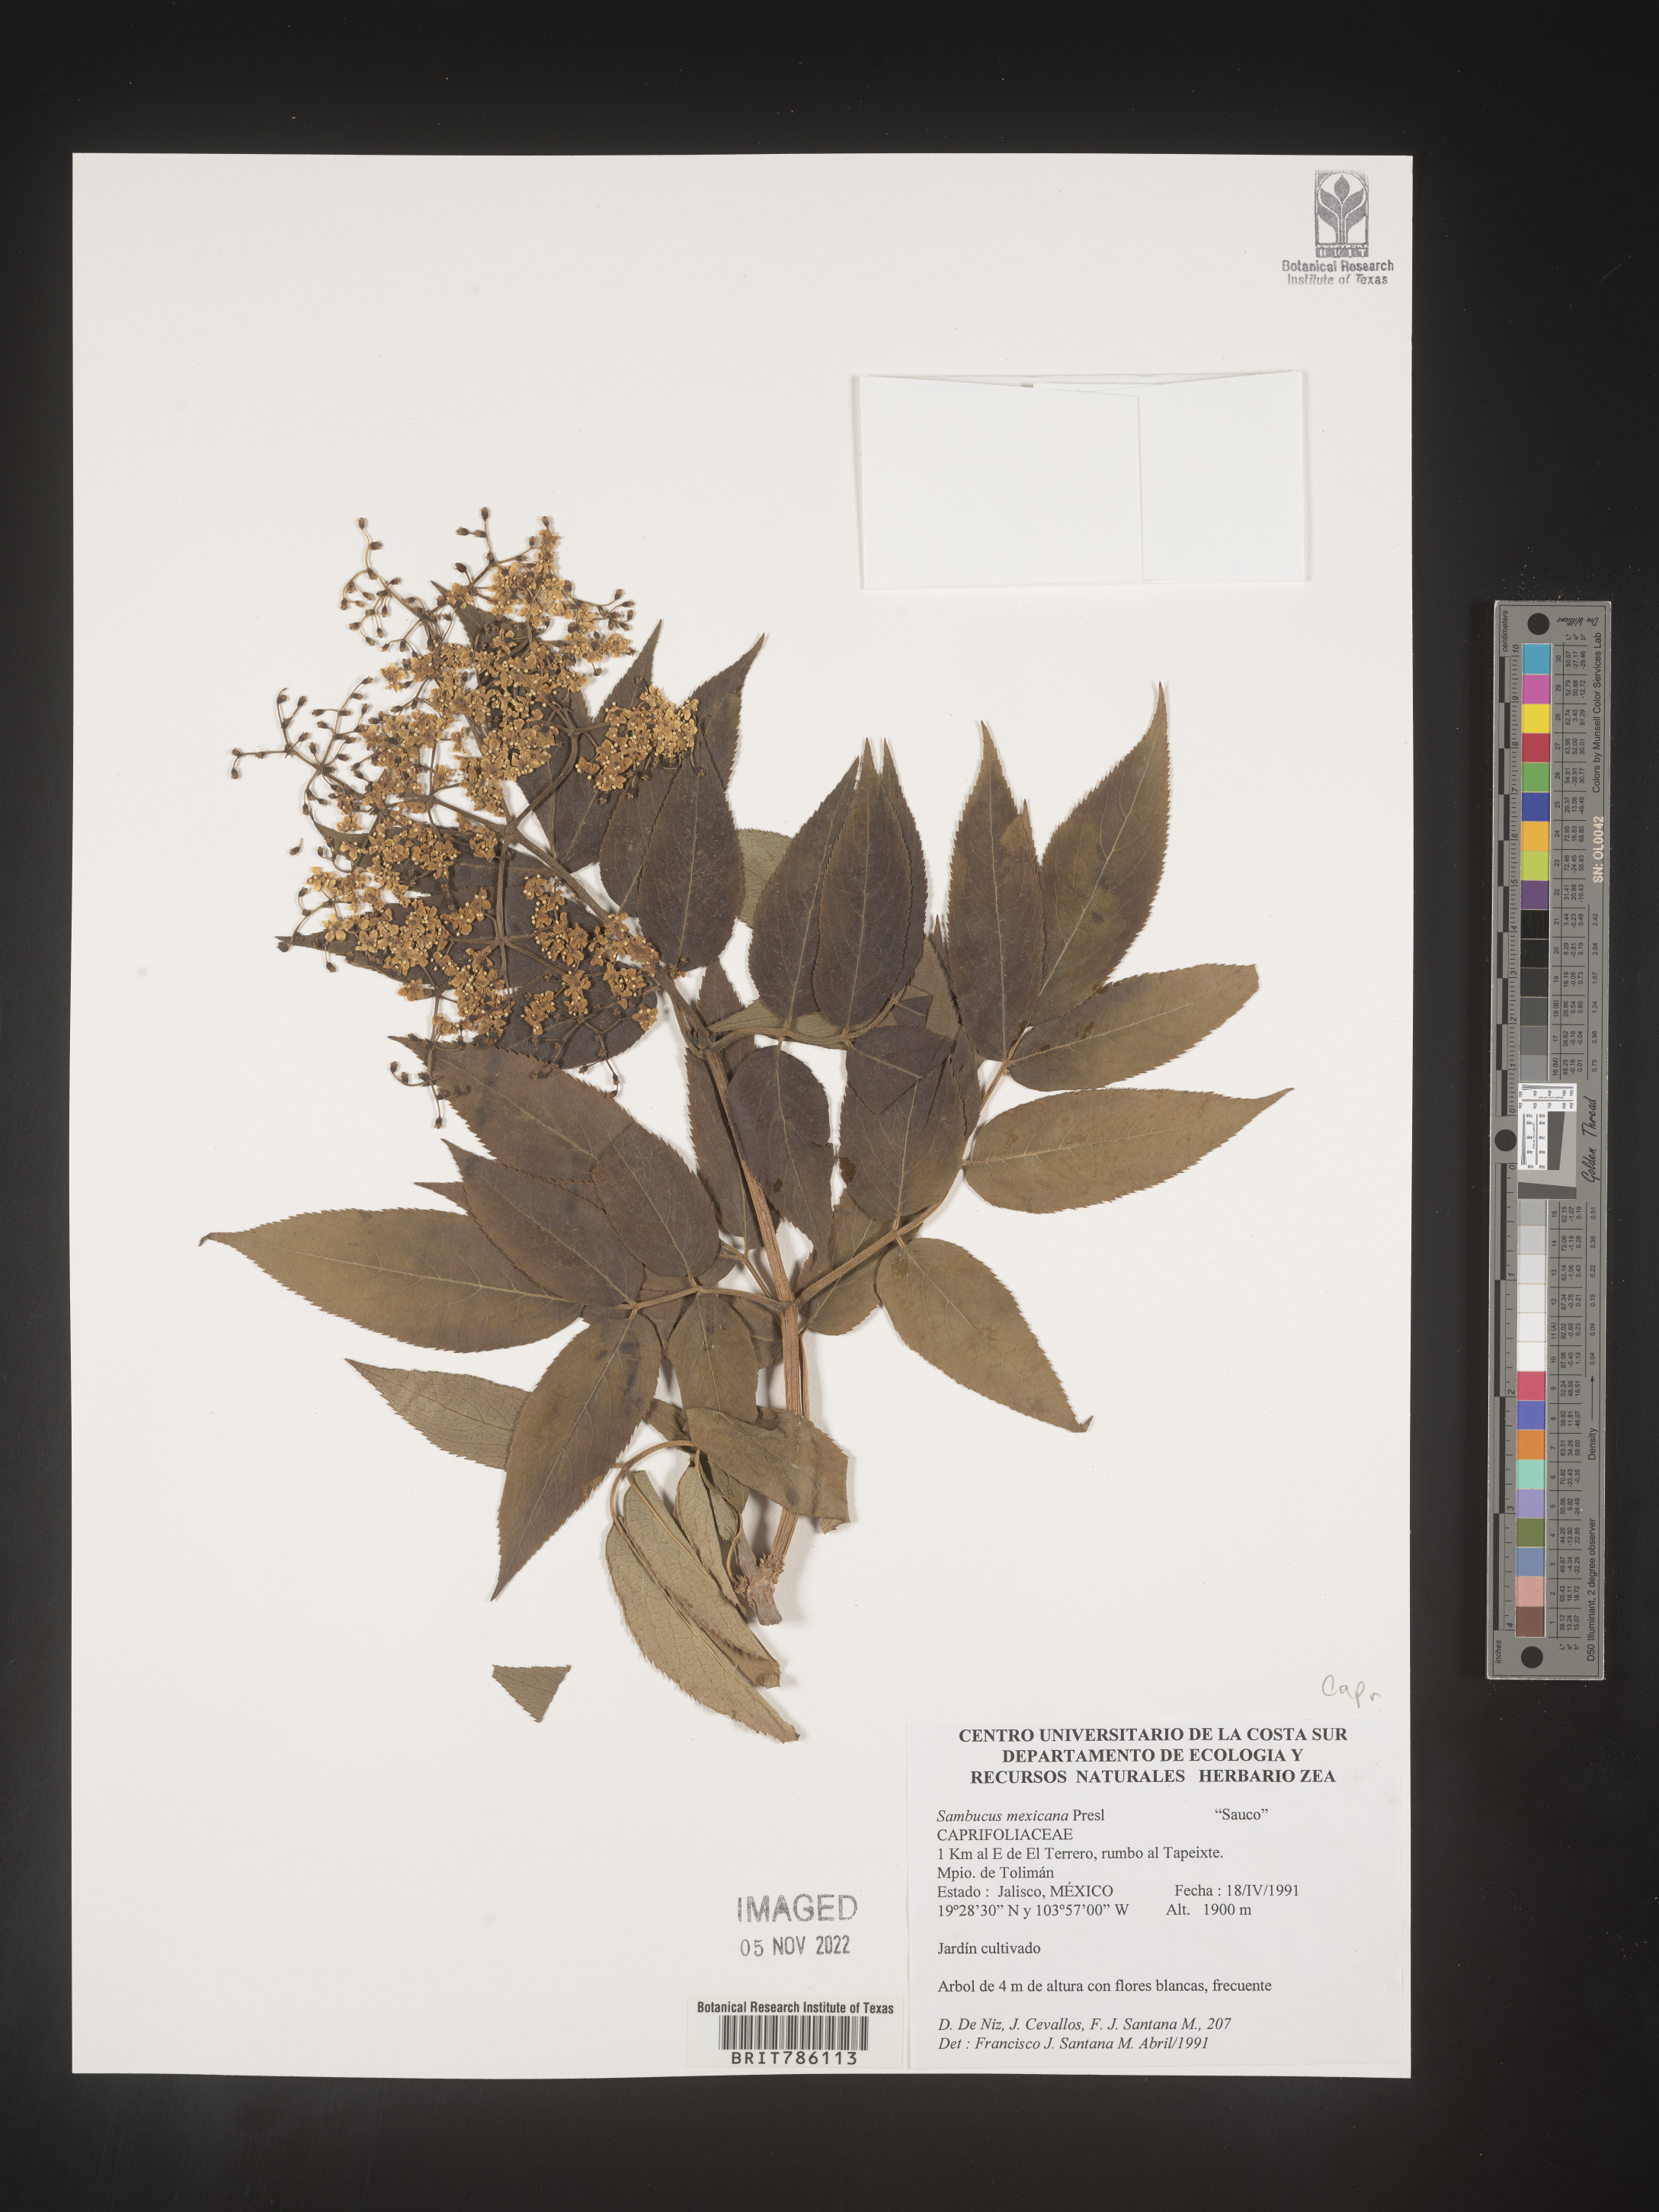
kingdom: Plantae
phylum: Tracheophyta
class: Magnoliopsida
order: Dipsacales
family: Viburnaceae
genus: Sambucus
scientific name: Sambucus
